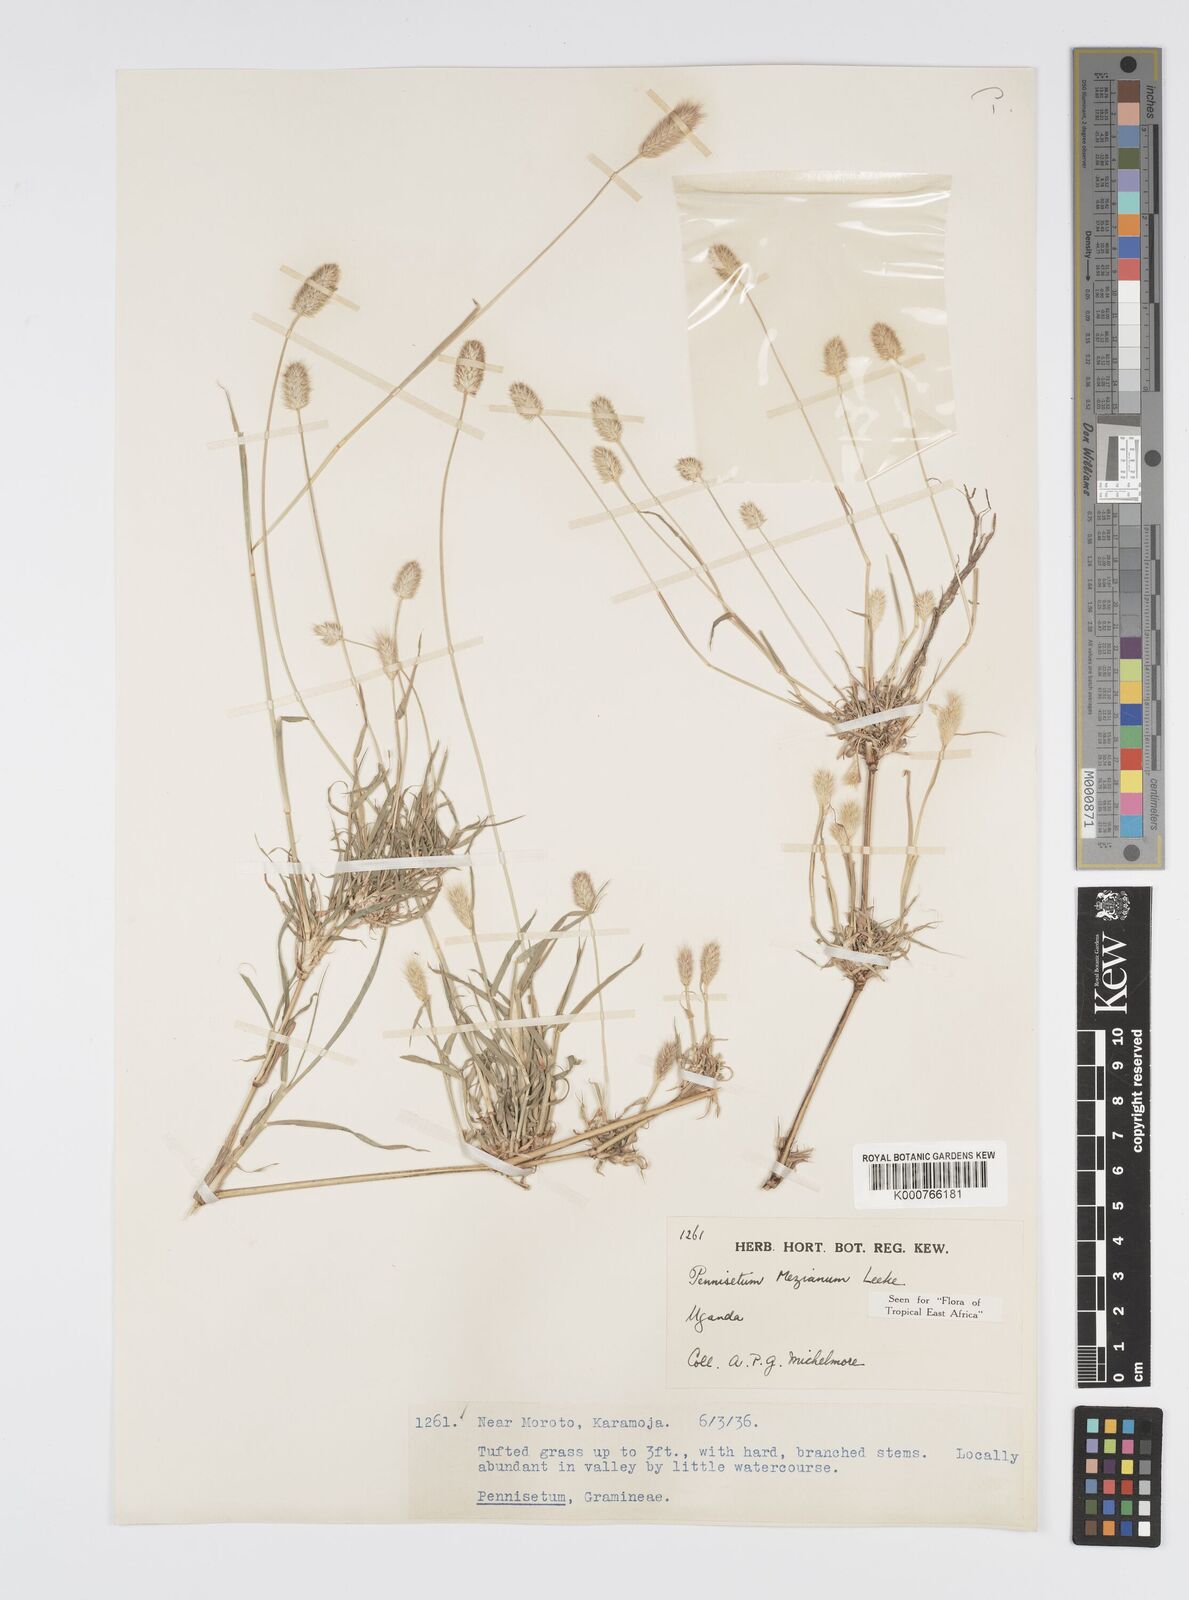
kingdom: Plantae
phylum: Tracheophyta
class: Liliopsida
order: Poales
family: Poaceae
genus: Cenchrus
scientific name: Cenchrus mezianus
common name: Bamboo grass
